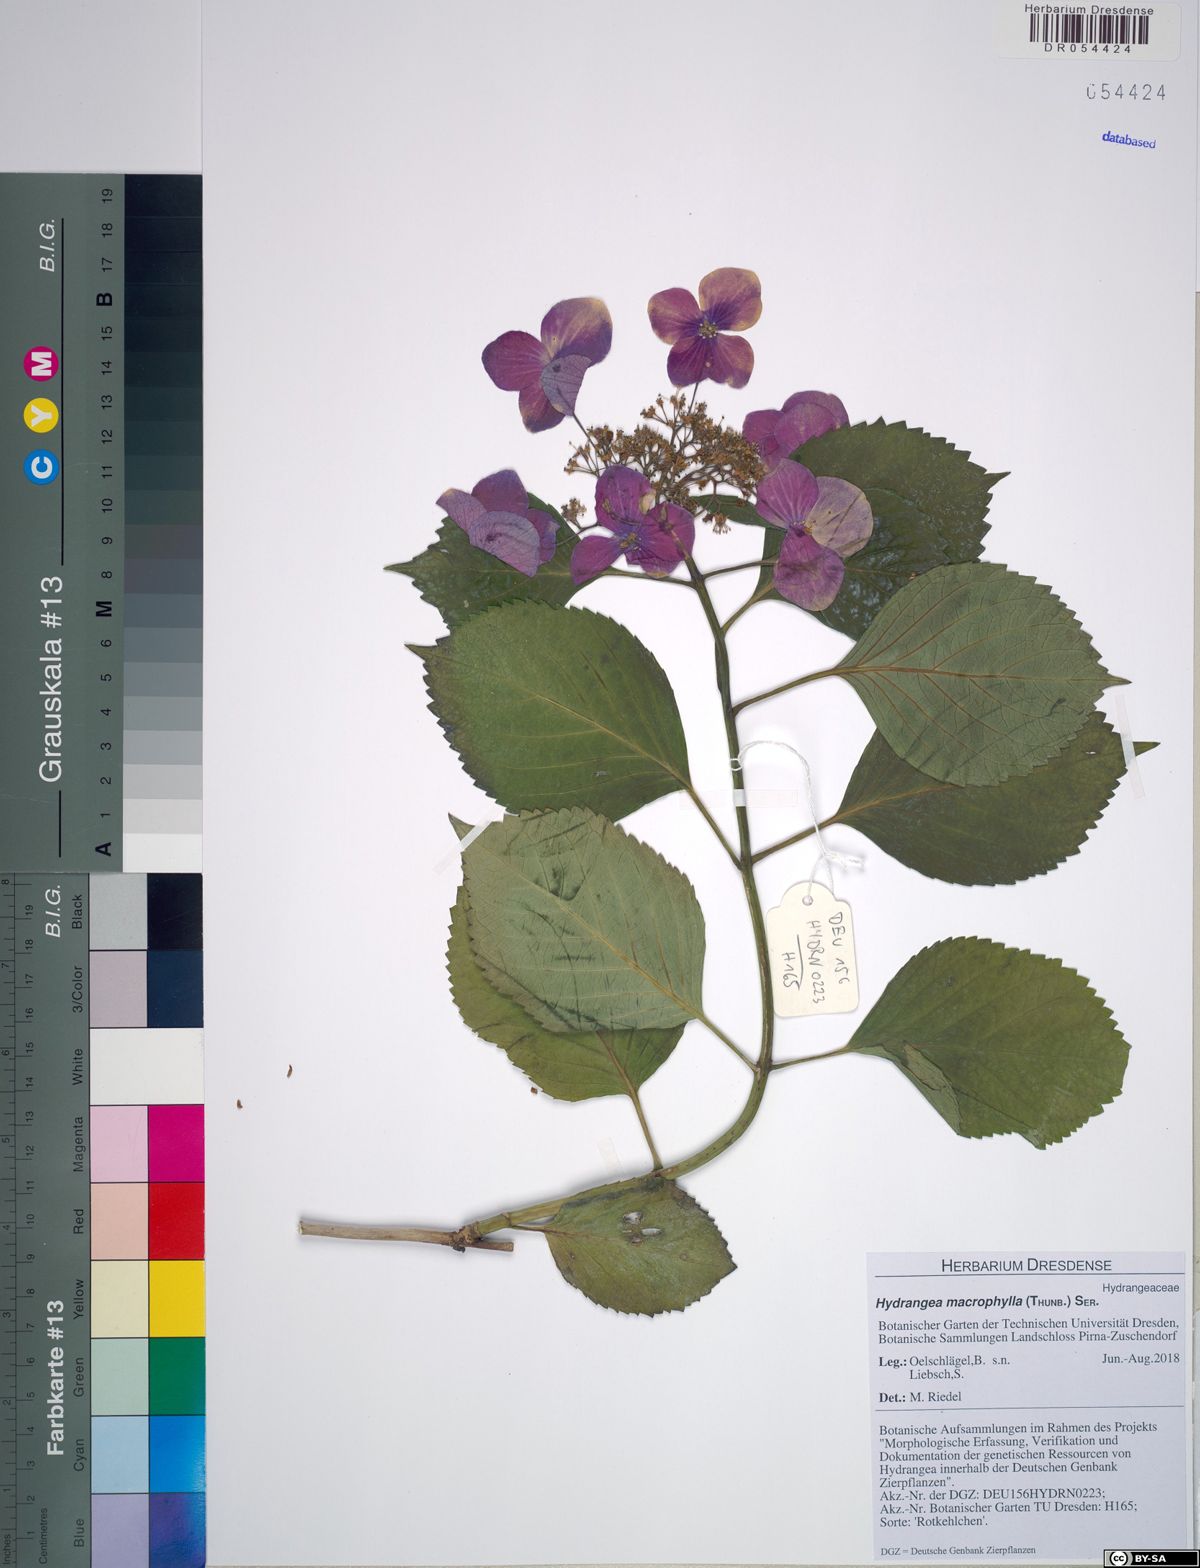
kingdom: Plantae
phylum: Tracheophyta
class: Magnoliopsida
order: Cornales
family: Hydrangeaceae
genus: Hydrangea
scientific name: Hydrangea macrophylla
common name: Hydrangea
